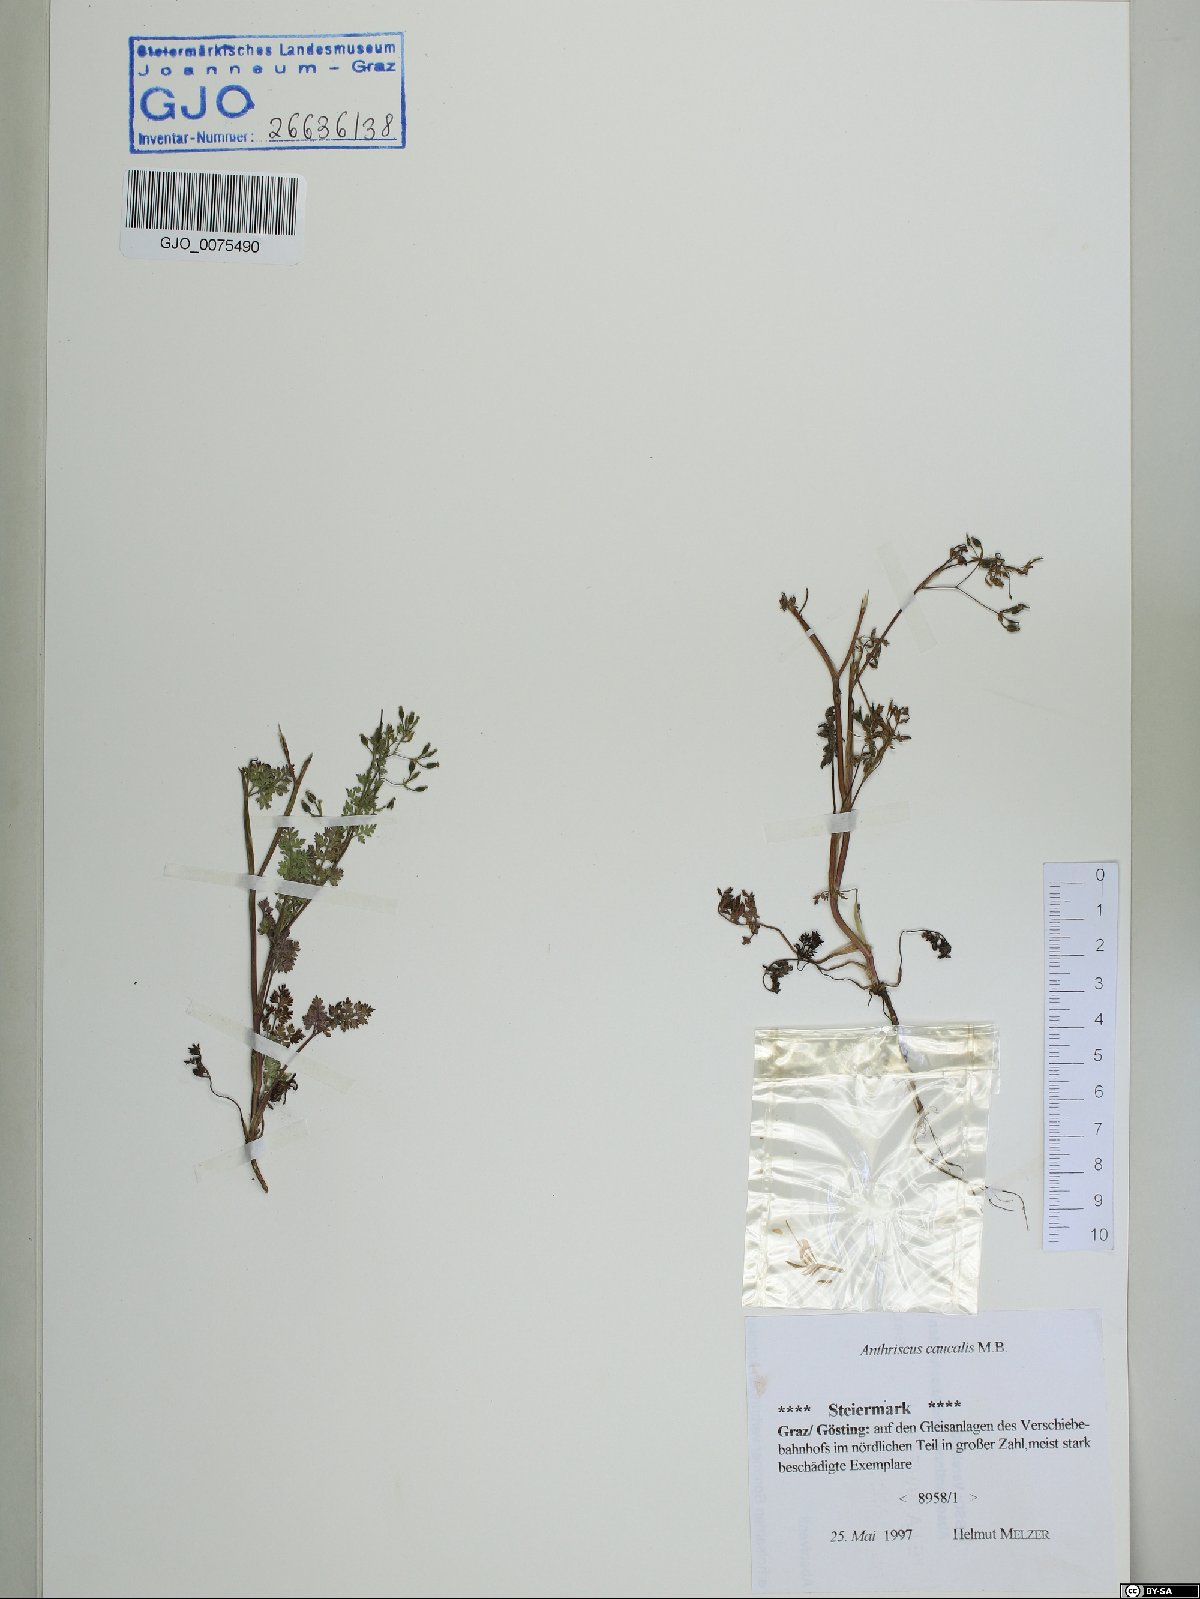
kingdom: Plantae
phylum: Tracheophyta
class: Magnoliopsida
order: Apiales
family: Apiaceae
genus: Anthriscus
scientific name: Anthriscus caucalis
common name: Bur chervil
